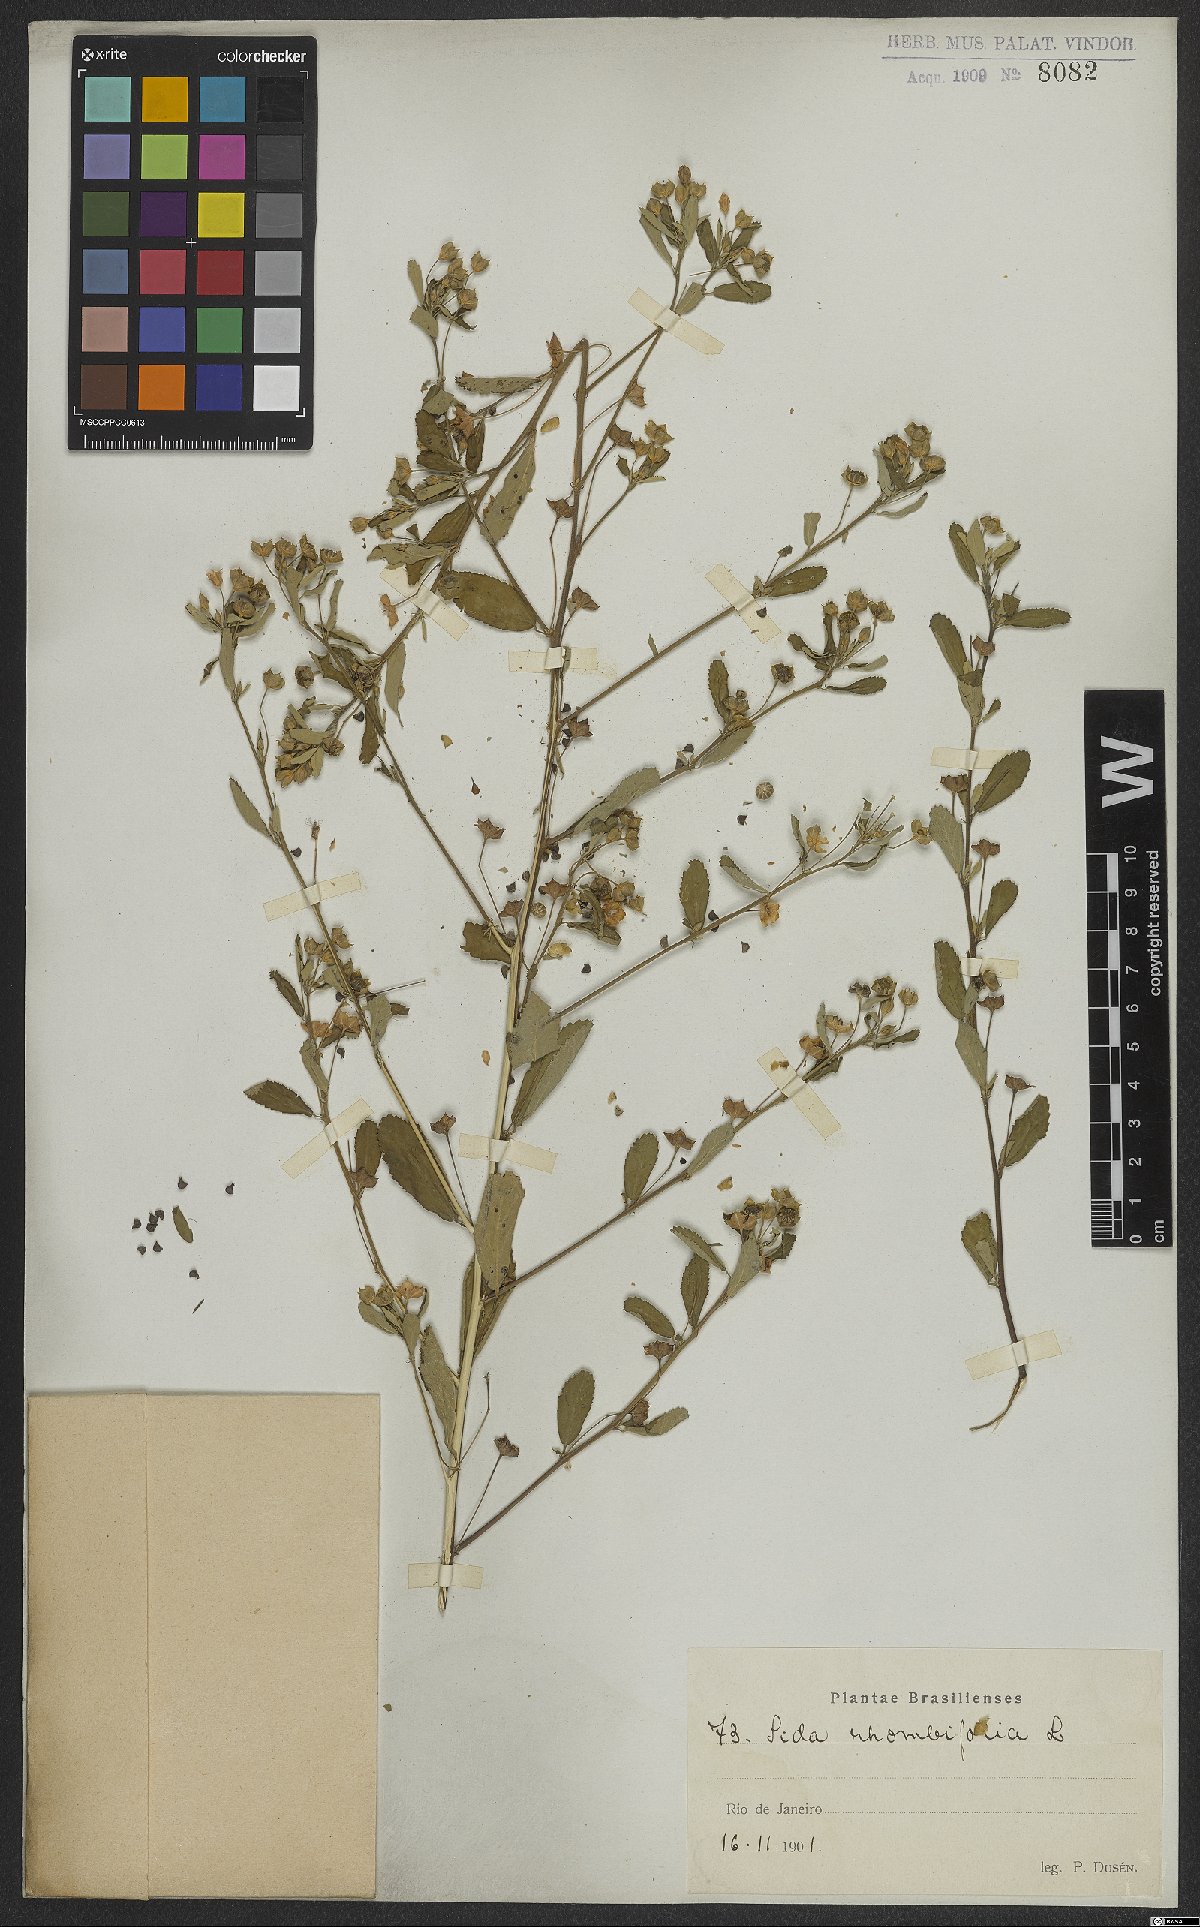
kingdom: Plantae
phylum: Tracheophyta
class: Magnoliopsida
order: Malvales
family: Malvaceae
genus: Sida
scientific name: Sida rhombifolia
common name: Queensland-hemp
